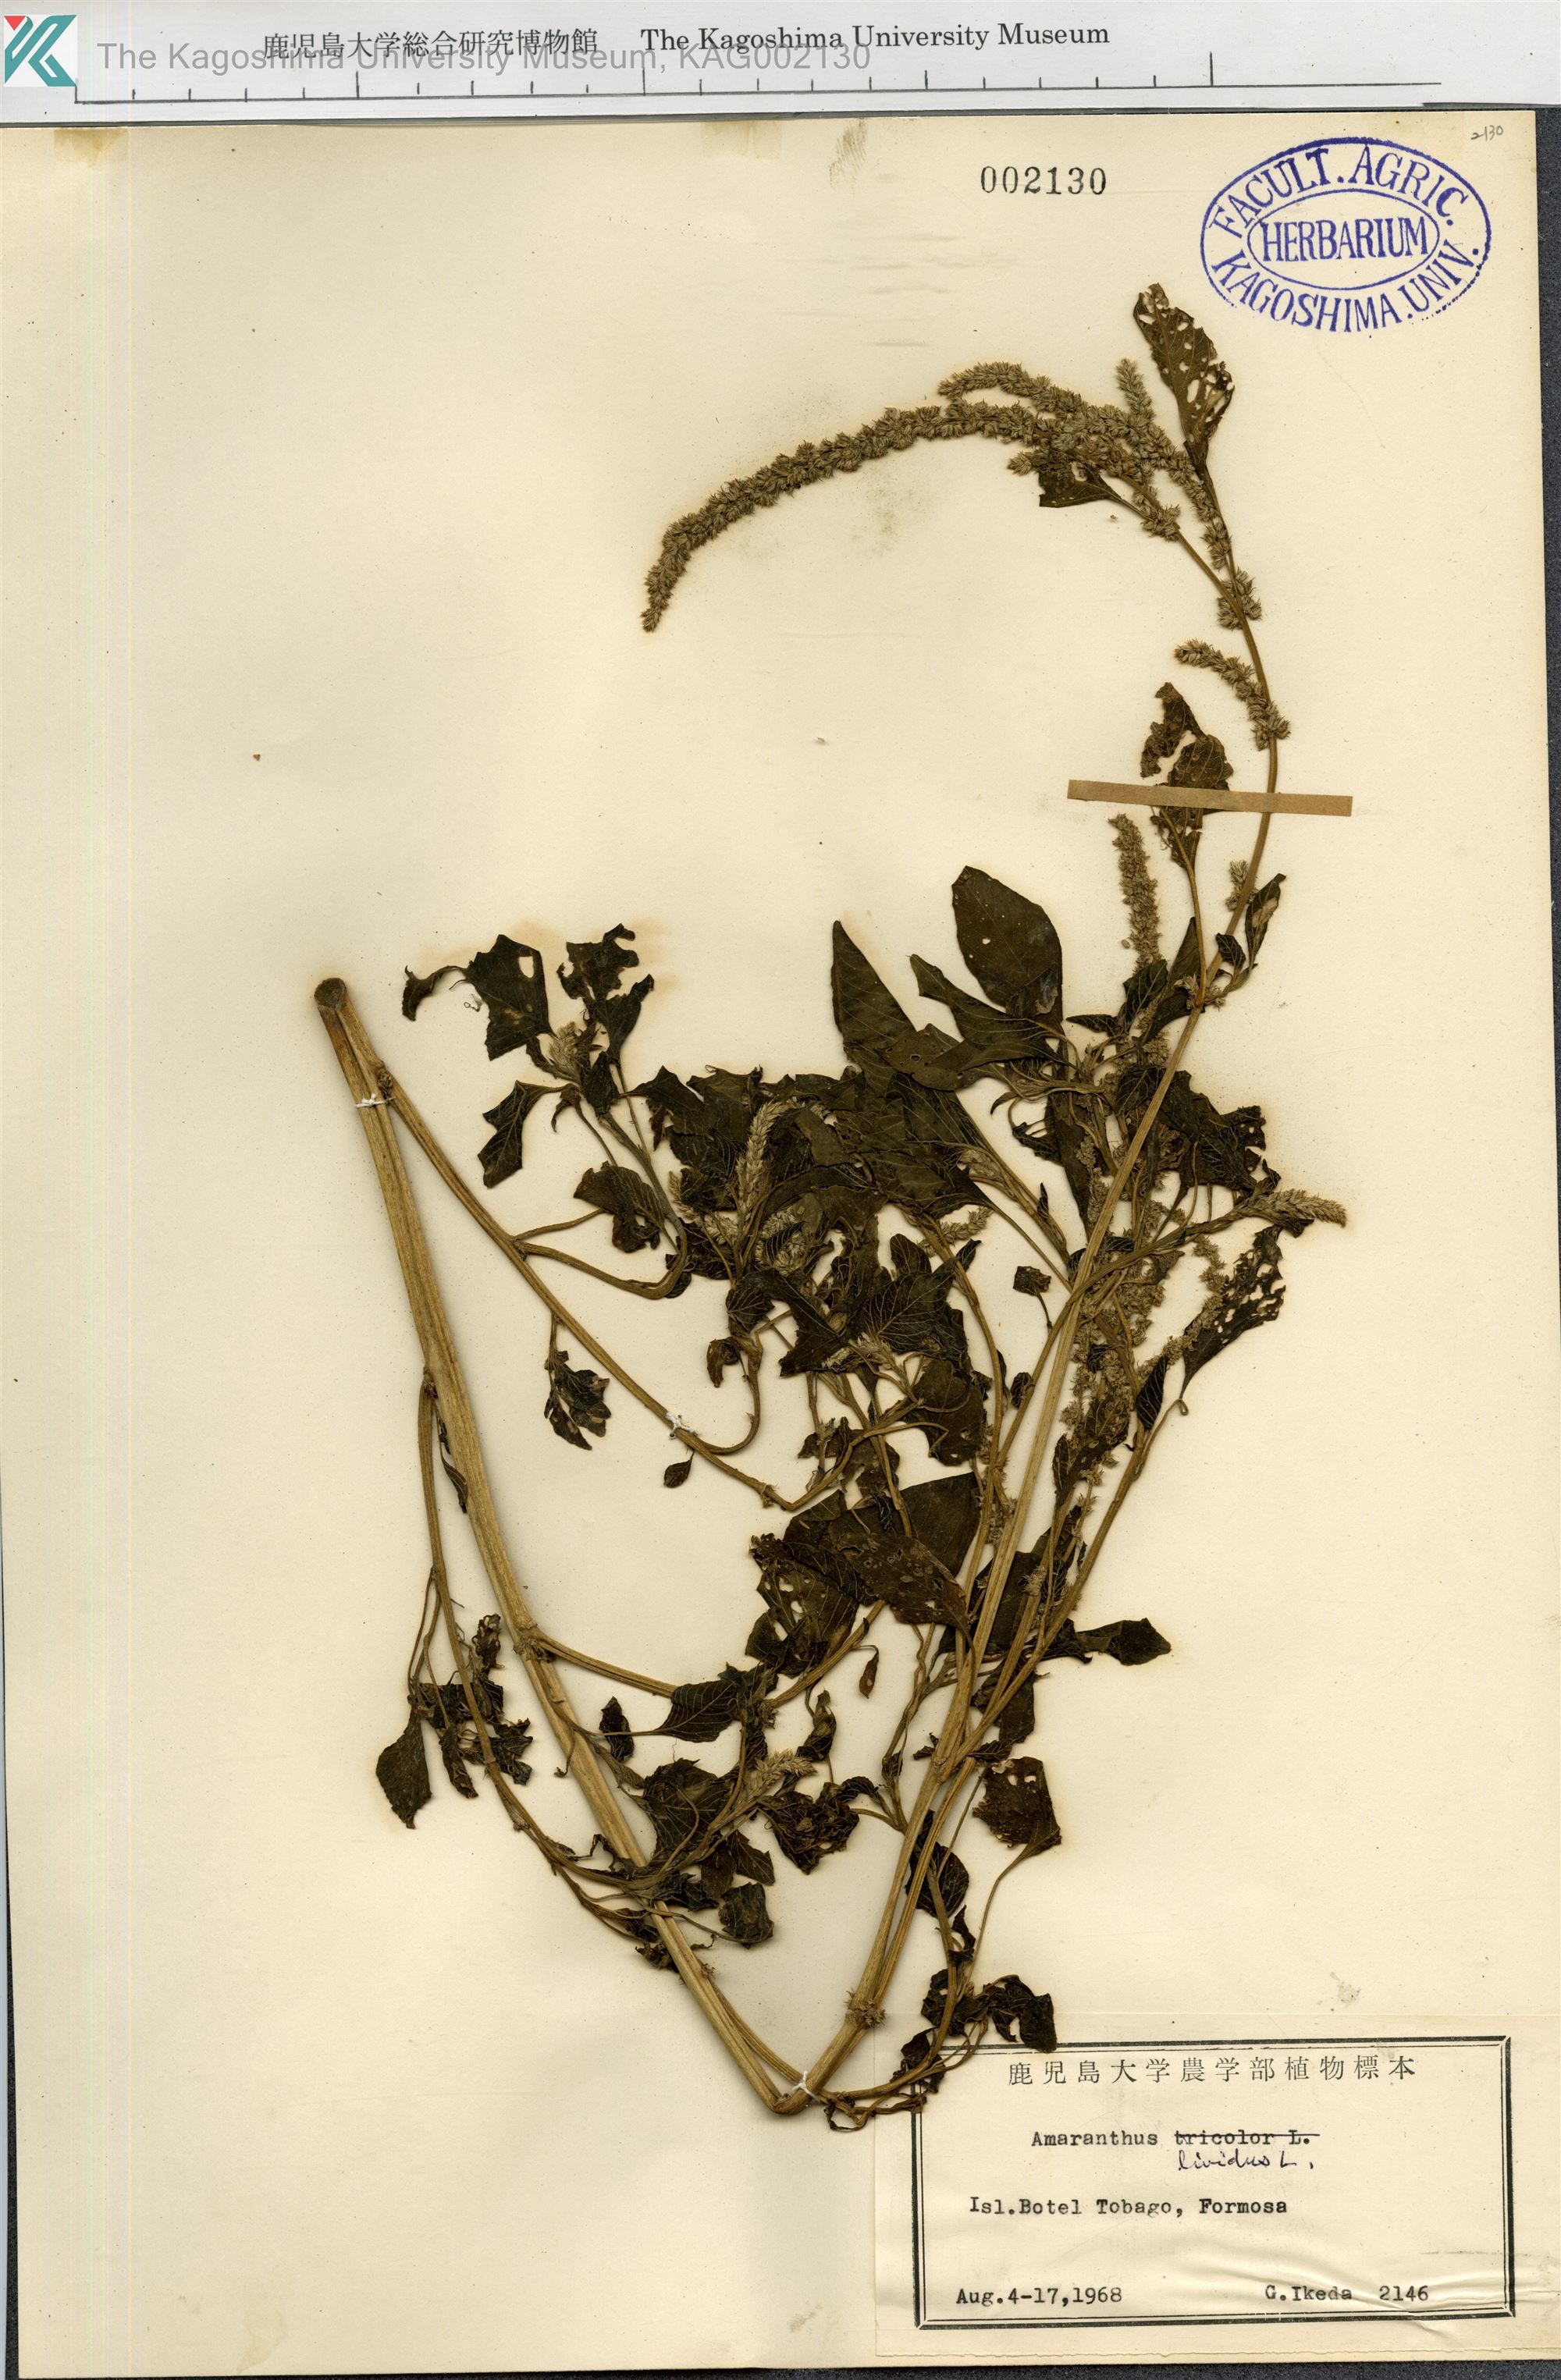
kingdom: Plantae
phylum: Tracheophyta
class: Magnoliopsida
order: Caryophyllales
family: Amaranthaceae
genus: Amaranthus
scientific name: Amaranthus blitum
